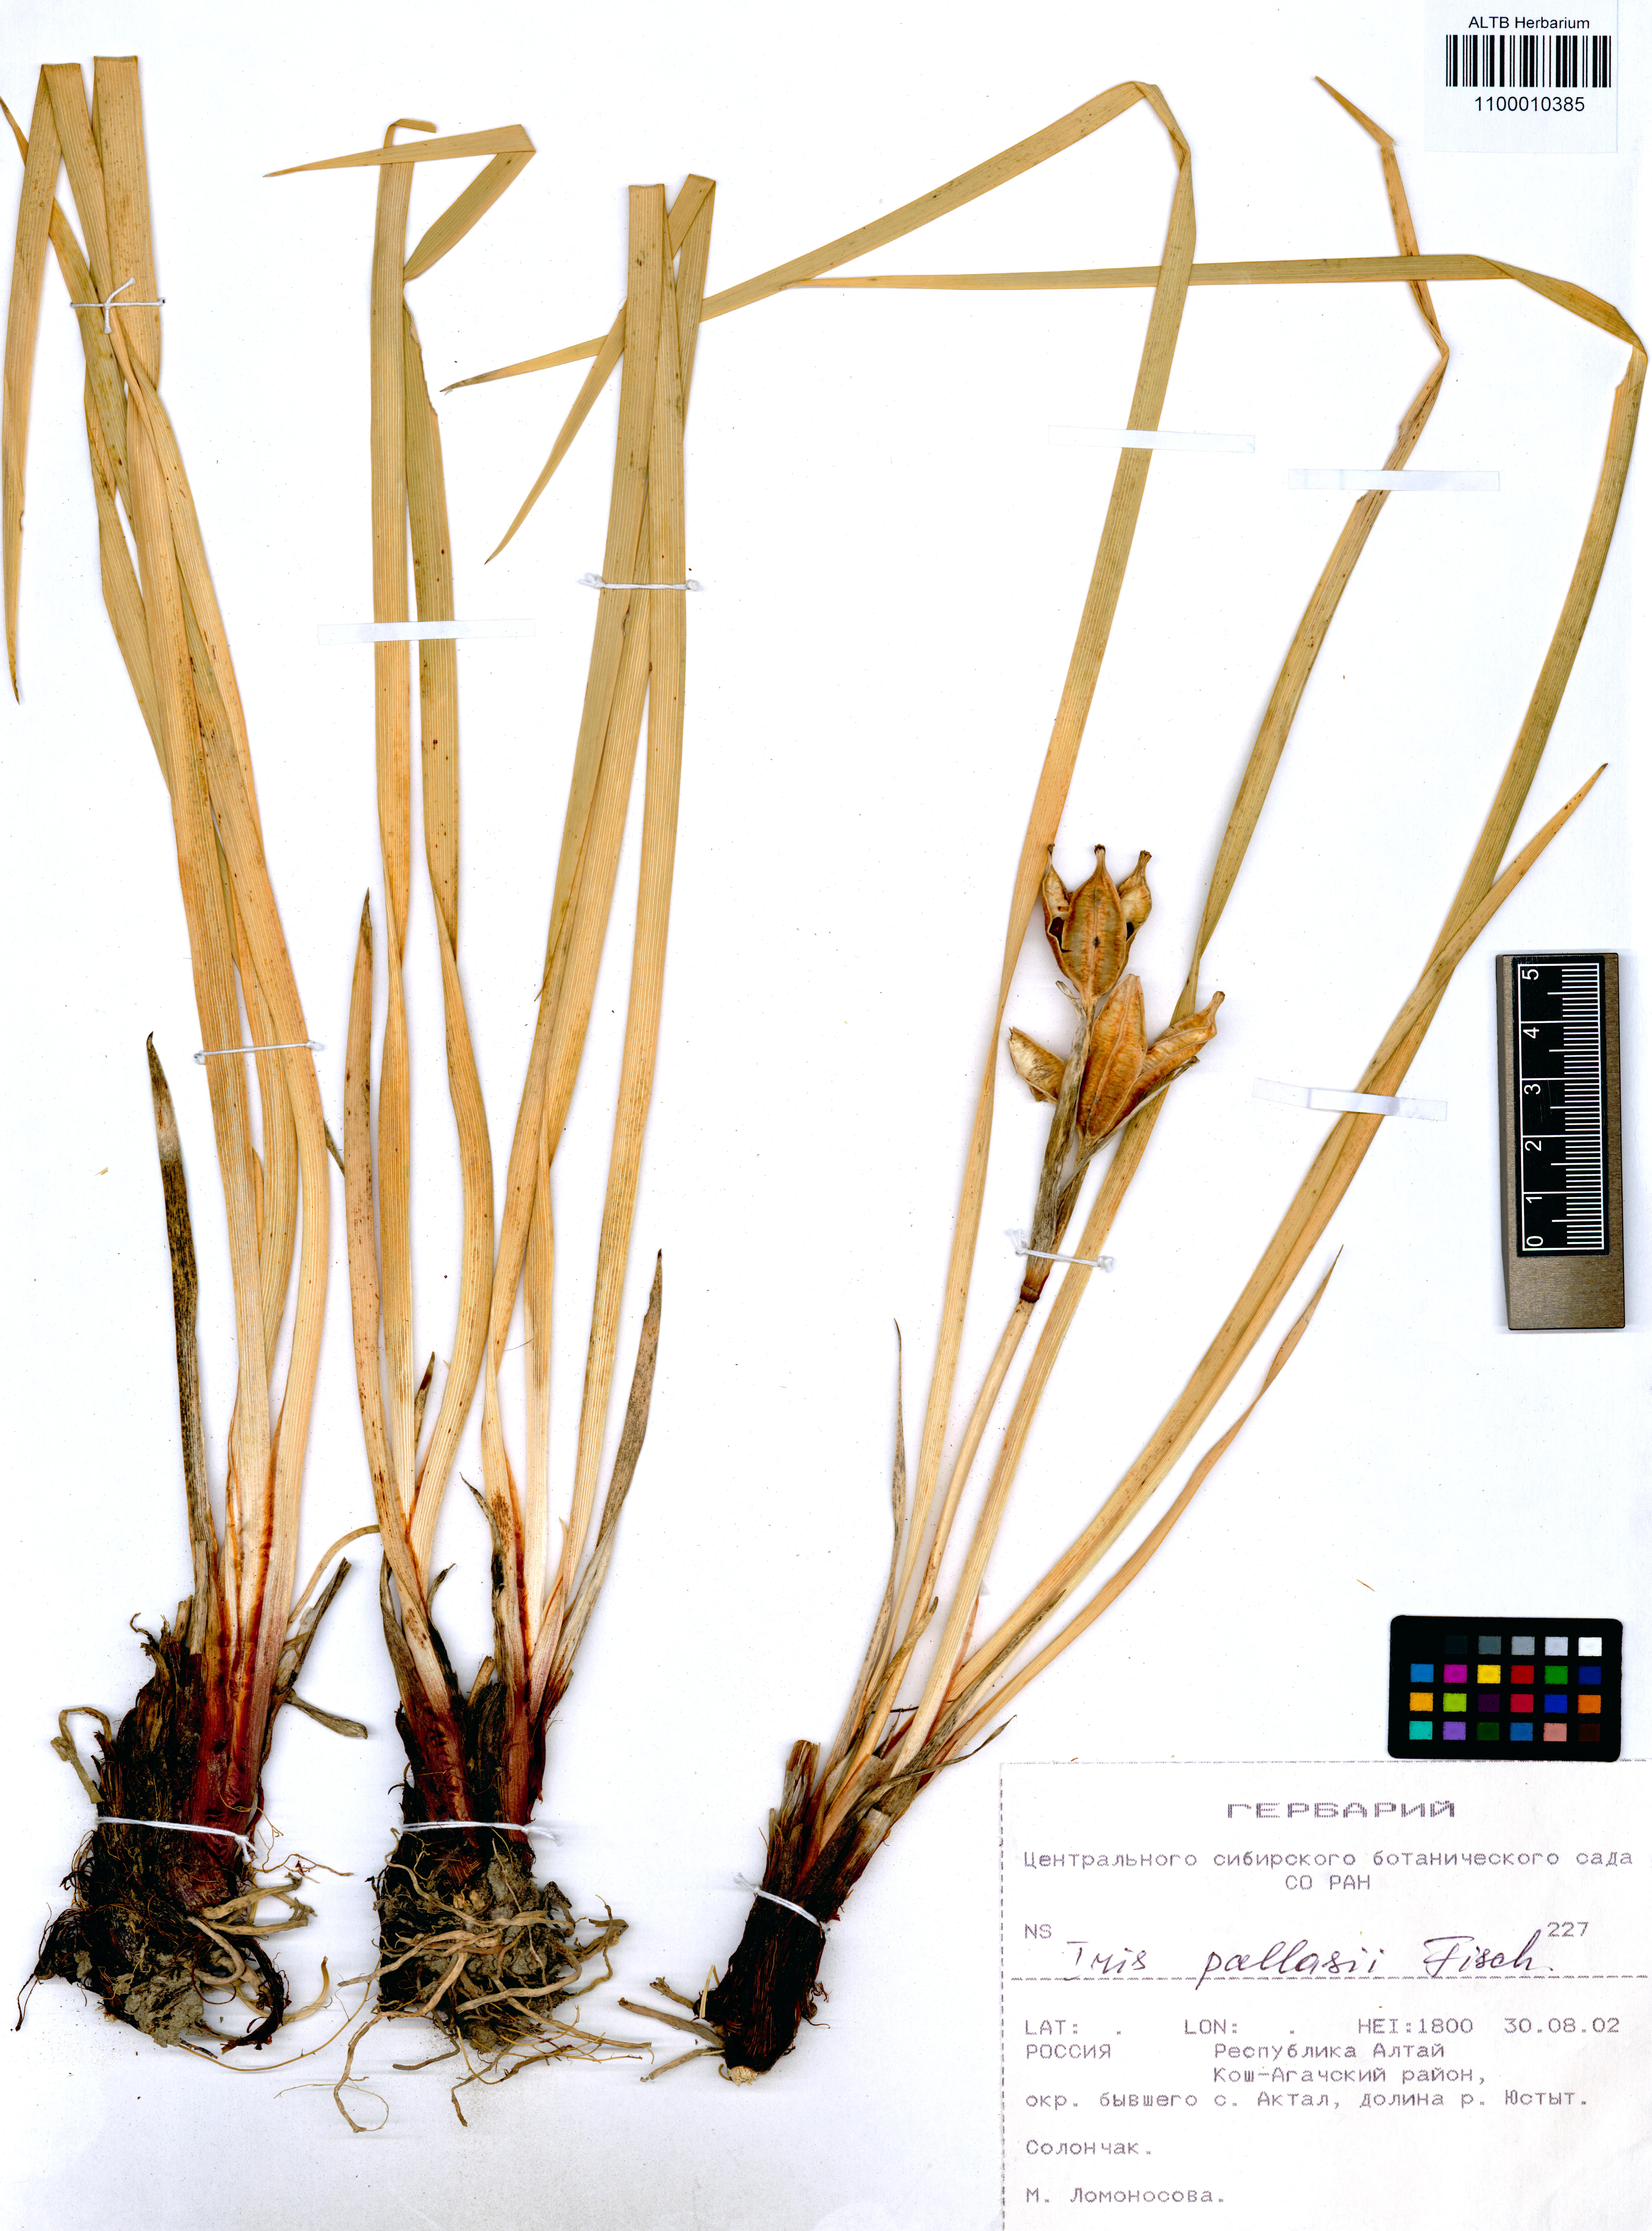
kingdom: Plantae
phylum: Tracheophyta
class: Liliopsida
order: Asparagales
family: Iridaceae
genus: Iris
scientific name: Iris tigridia
